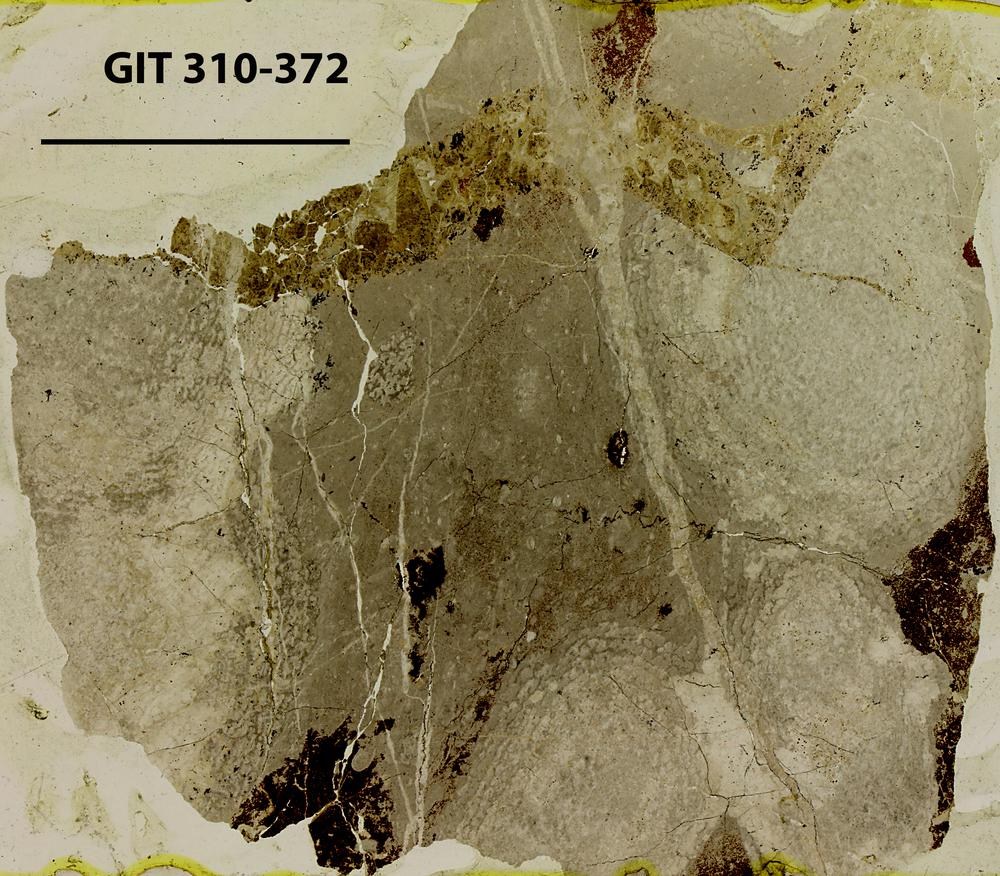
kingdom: Animalia
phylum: Porifera
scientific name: Porifera
